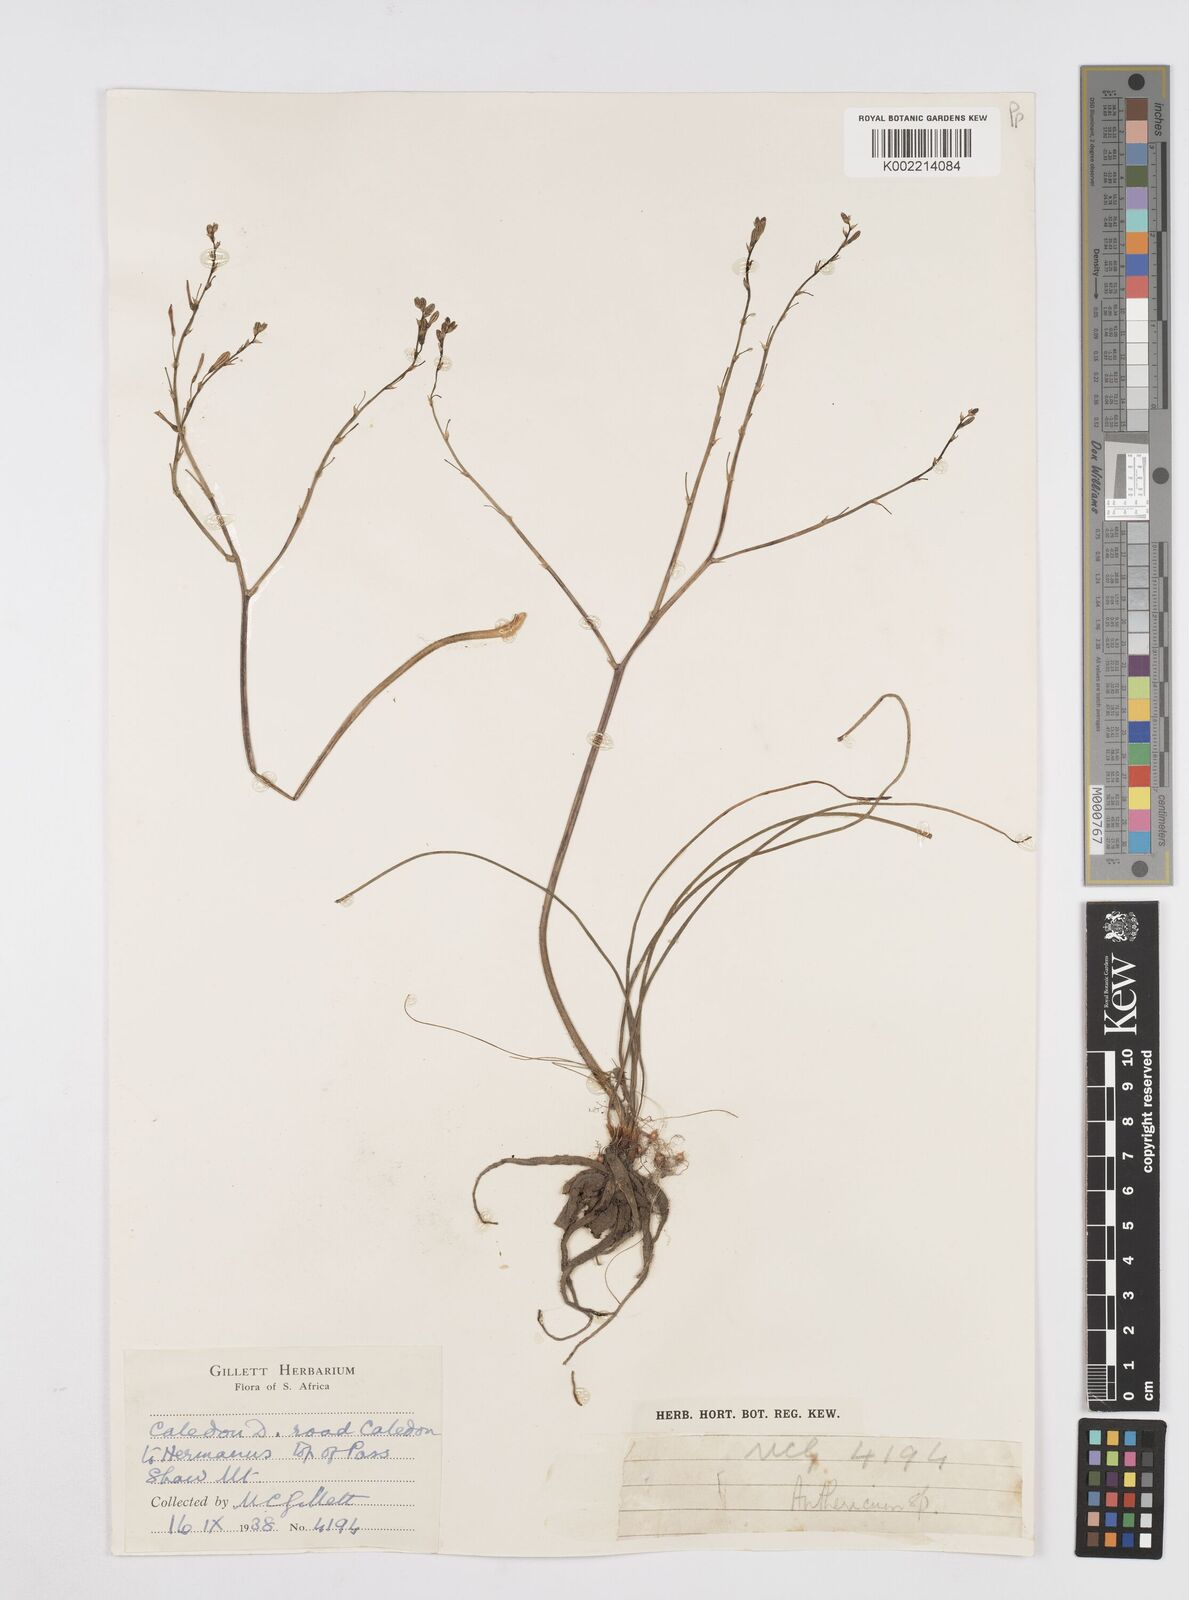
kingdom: Plantae
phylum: Tracheophyta
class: Liliopsida
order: Asparagales
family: Asphodelaceae
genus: Trachyandra
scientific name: Trachyandra
